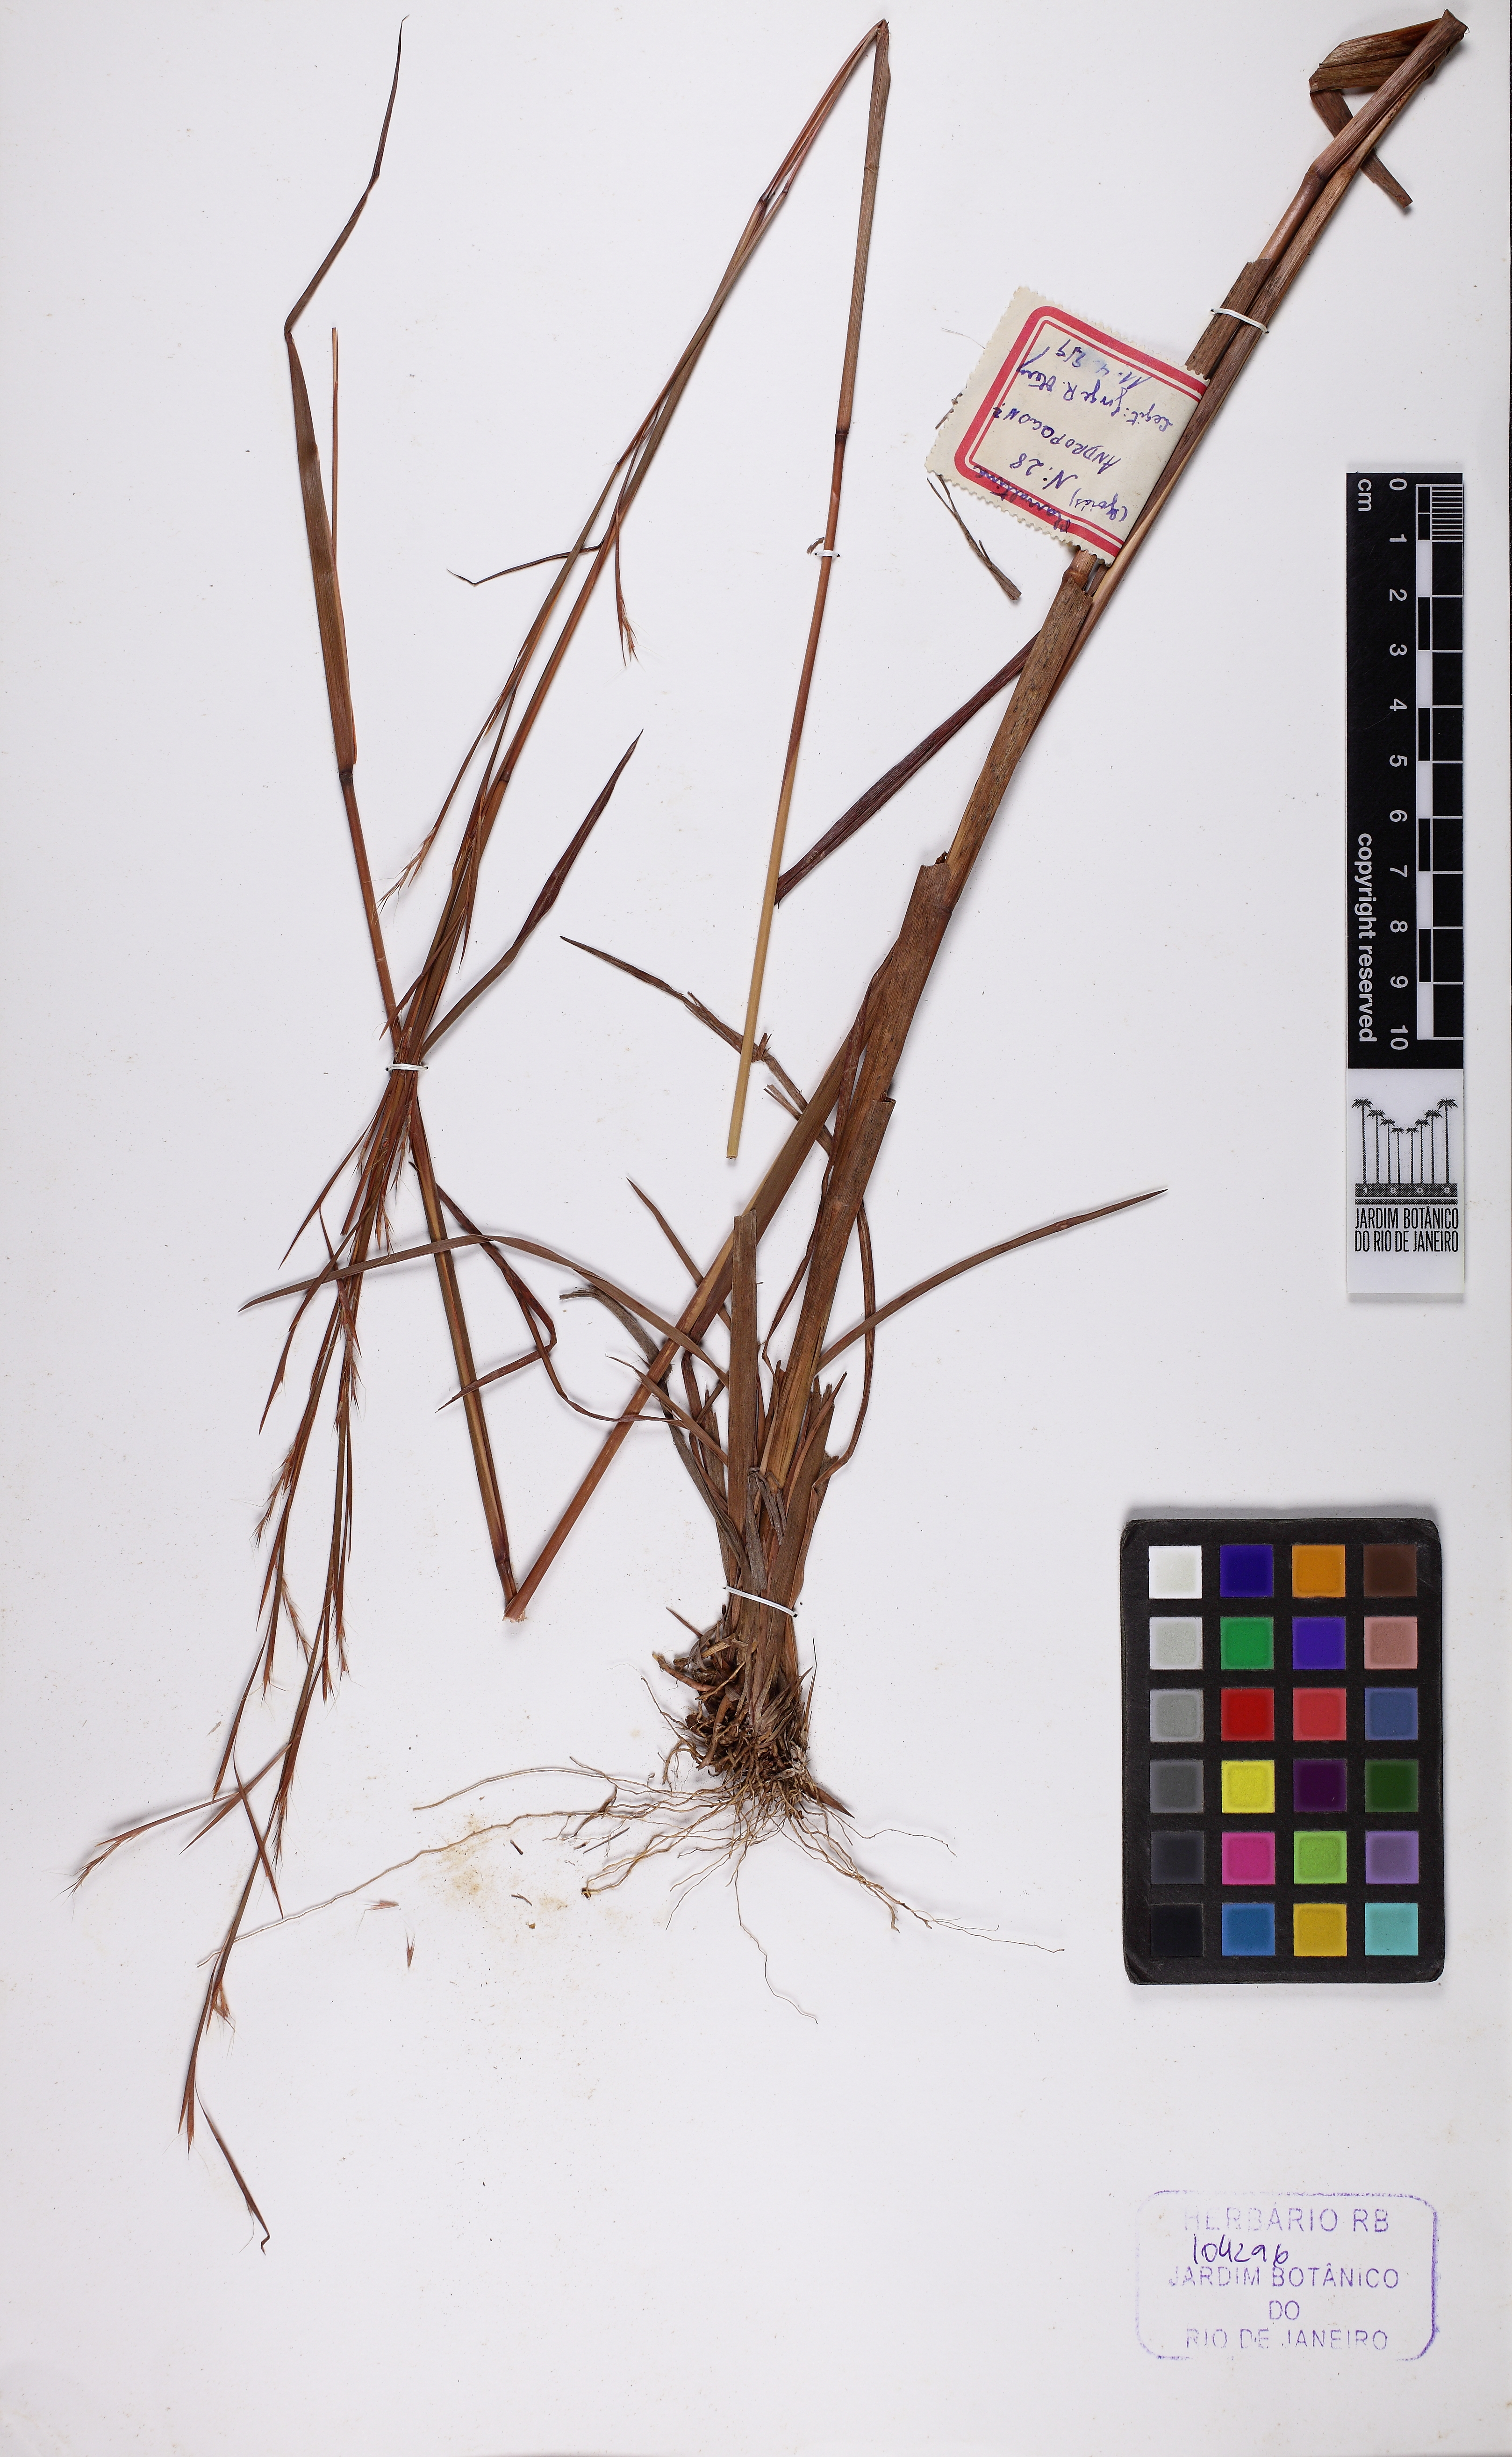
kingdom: Plantae
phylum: Tracheophyta
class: Liliopsida
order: Poales
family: Poaceae
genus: Schizachyrium
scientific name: Schizachyrium
